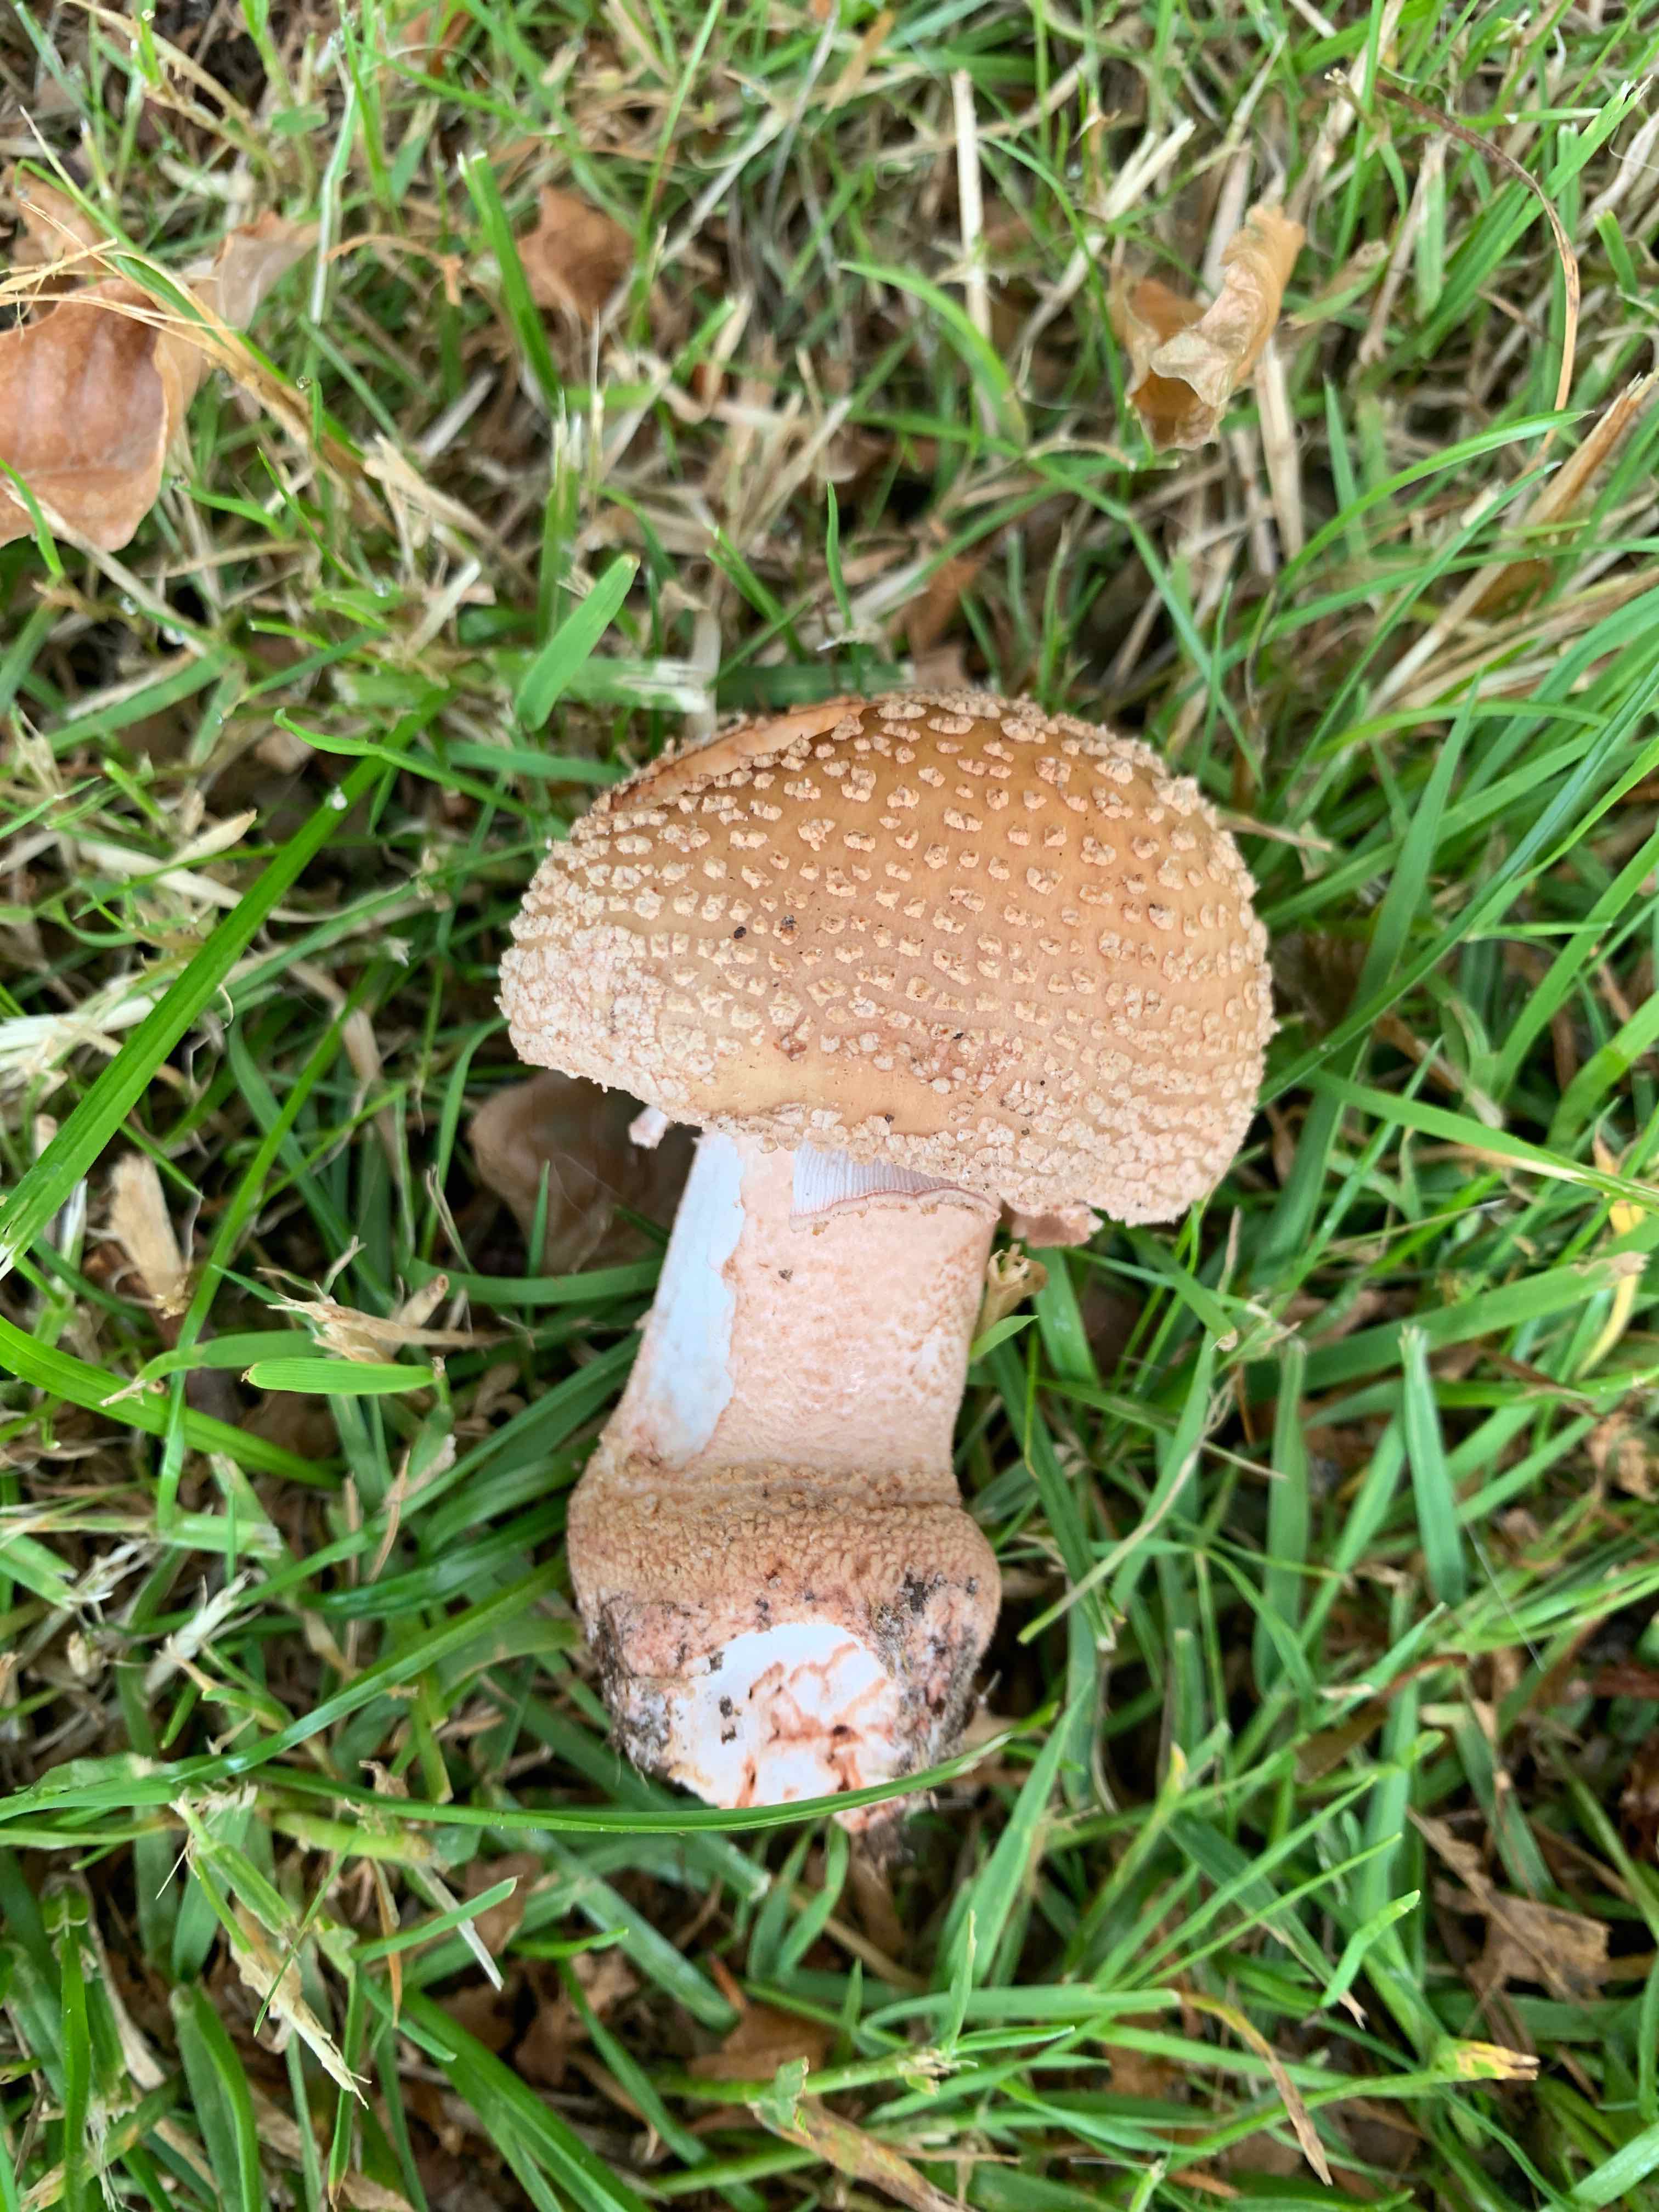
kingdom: Fungi
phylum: Basidiomycota
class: Agaricomycetes
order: Agaricales
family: Amanitaceae
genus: Amanita
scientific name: Amanita rubescens
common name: rødmende fluesvamp
